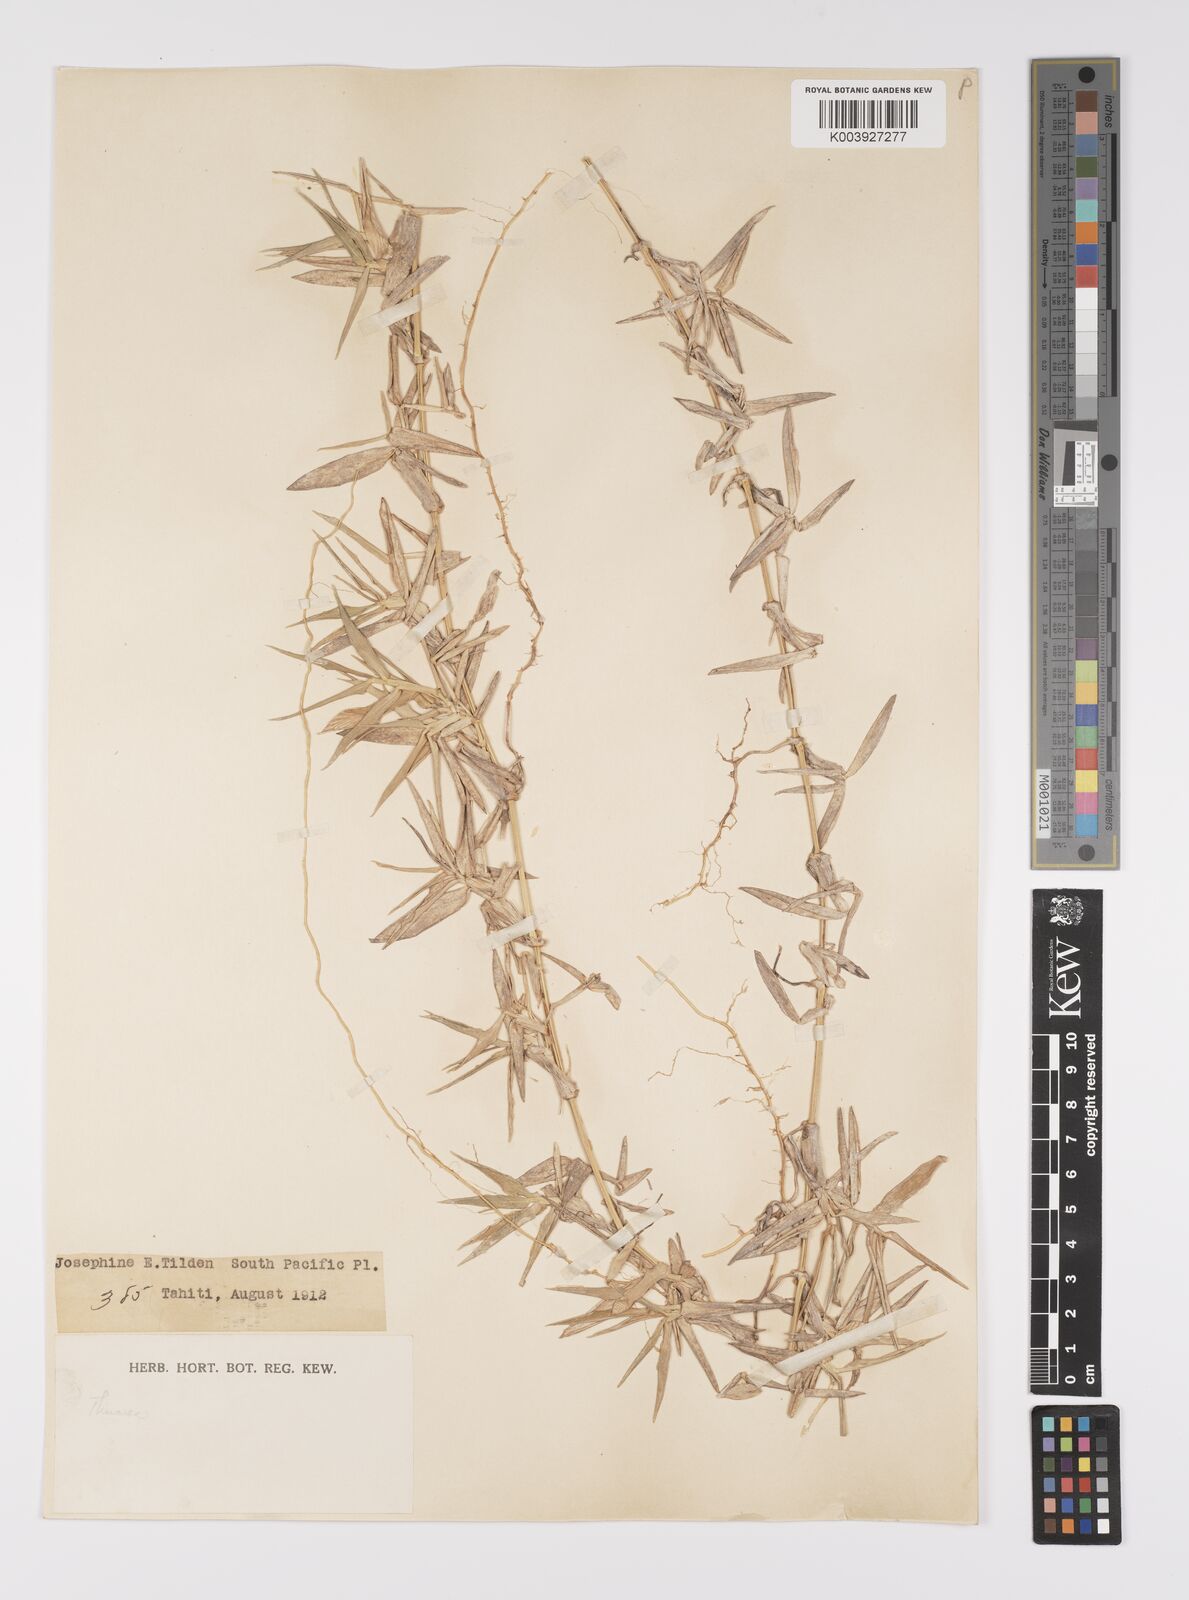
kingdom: Plantae
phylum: Tracheophyta
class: Liliopsida
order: Poales
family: Poaceae
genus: Thuarea
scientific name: Thuarea involuta
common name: Tropical beach grass
